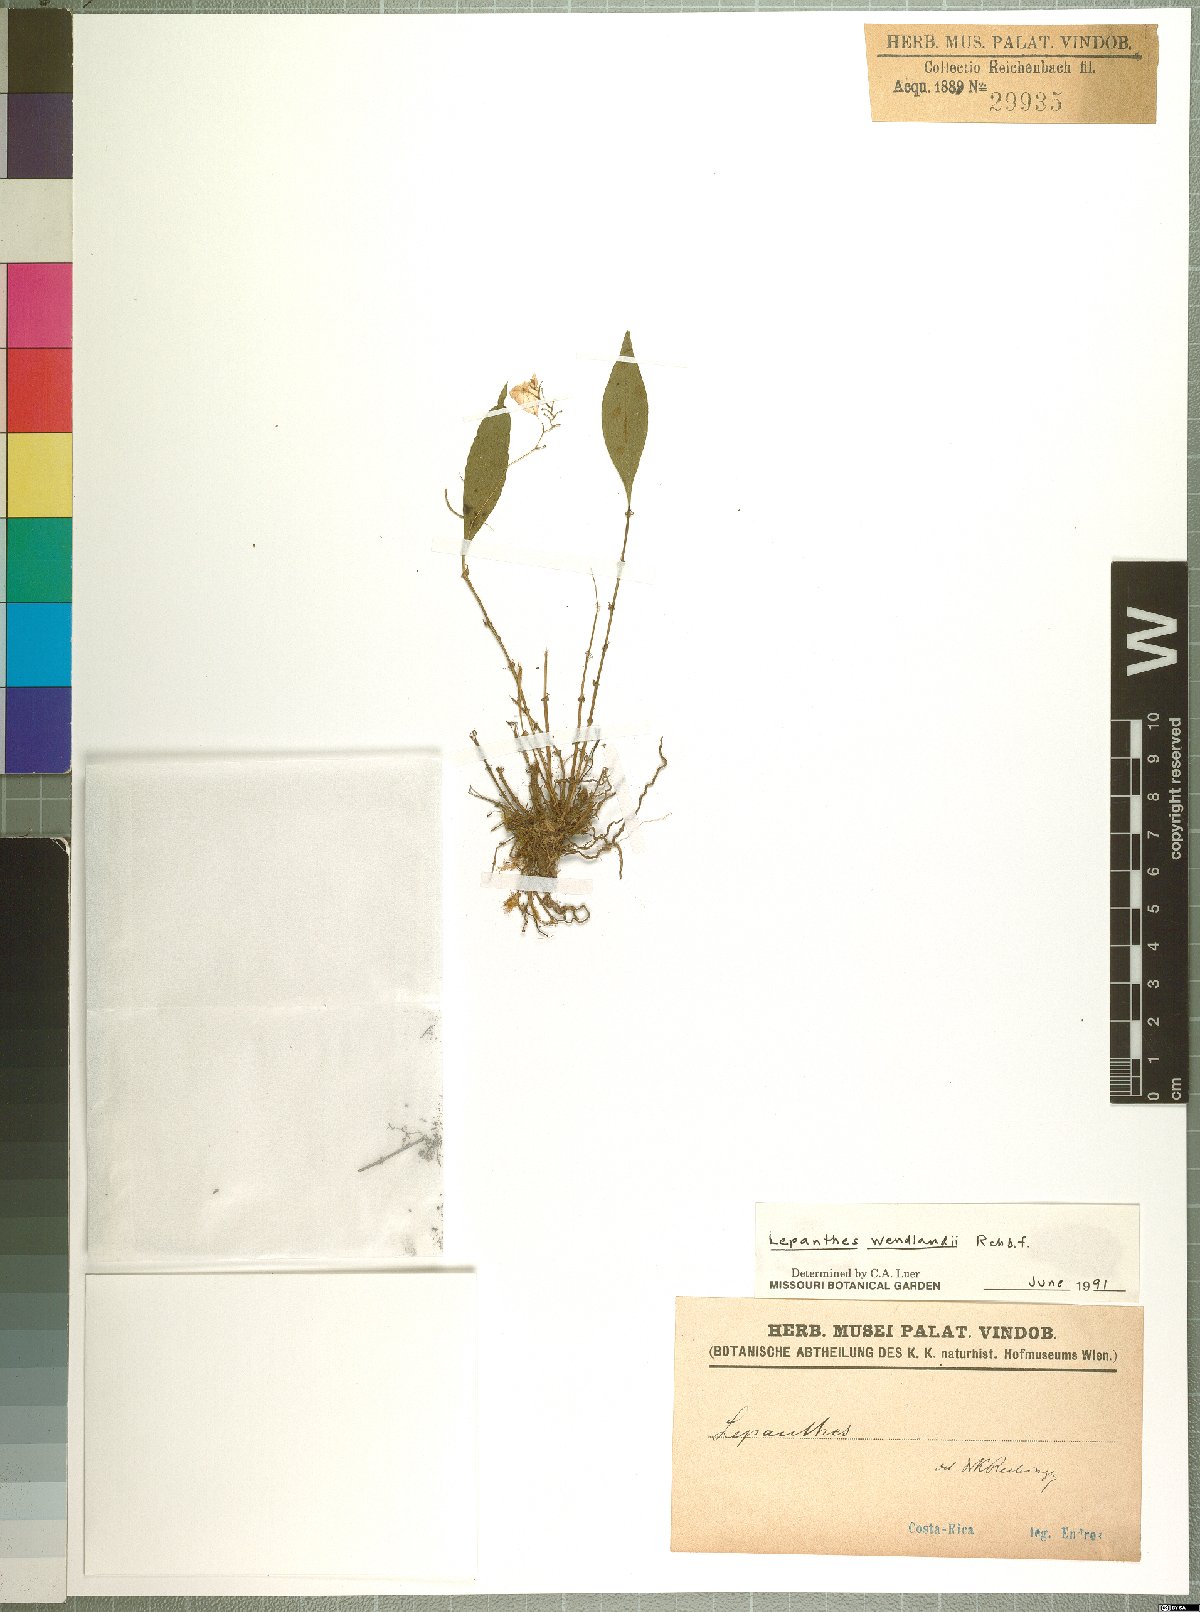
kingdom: Plantae
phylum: Tracheophyta
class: Liliopsida
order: Asparagales
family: Orchidaceae
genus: Lepanthes
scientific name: Lepanthes wendlandii
